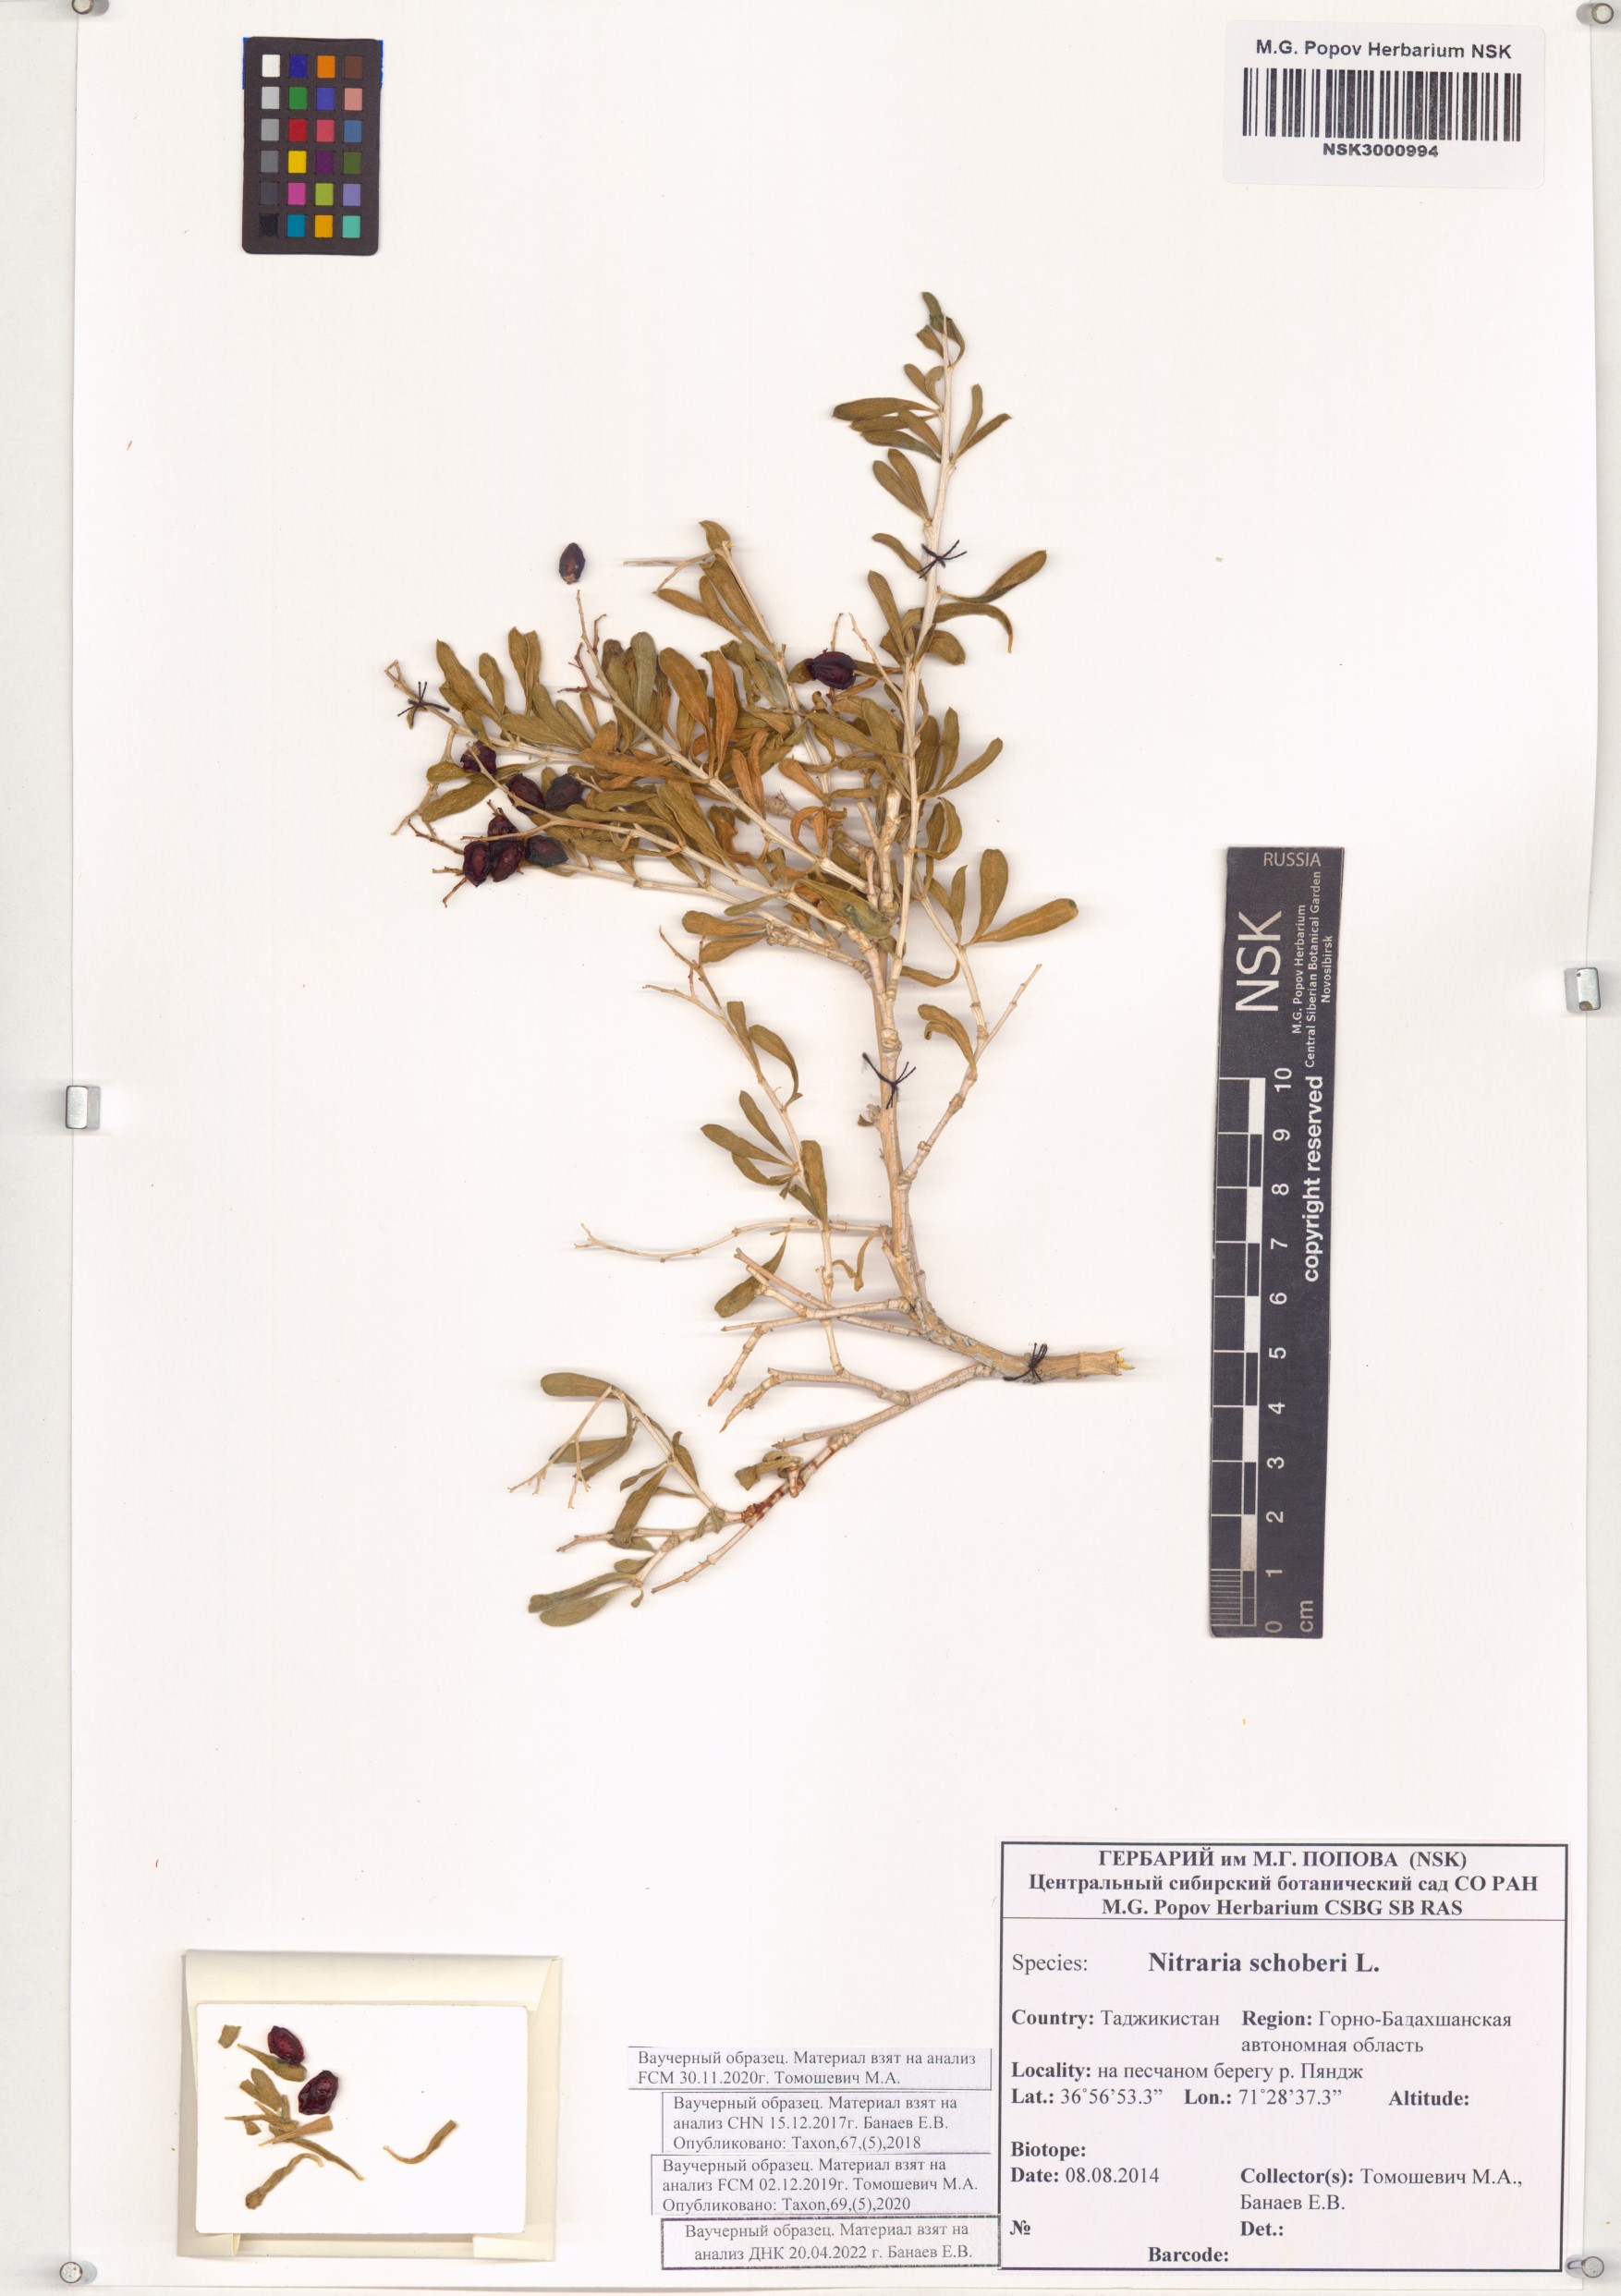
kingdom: Plantae
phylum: Tracheophyta
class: Magnoliopsida
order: Sapindales
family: Nitrariaceae
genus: Nitraria
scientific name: Nitraria schoberi
